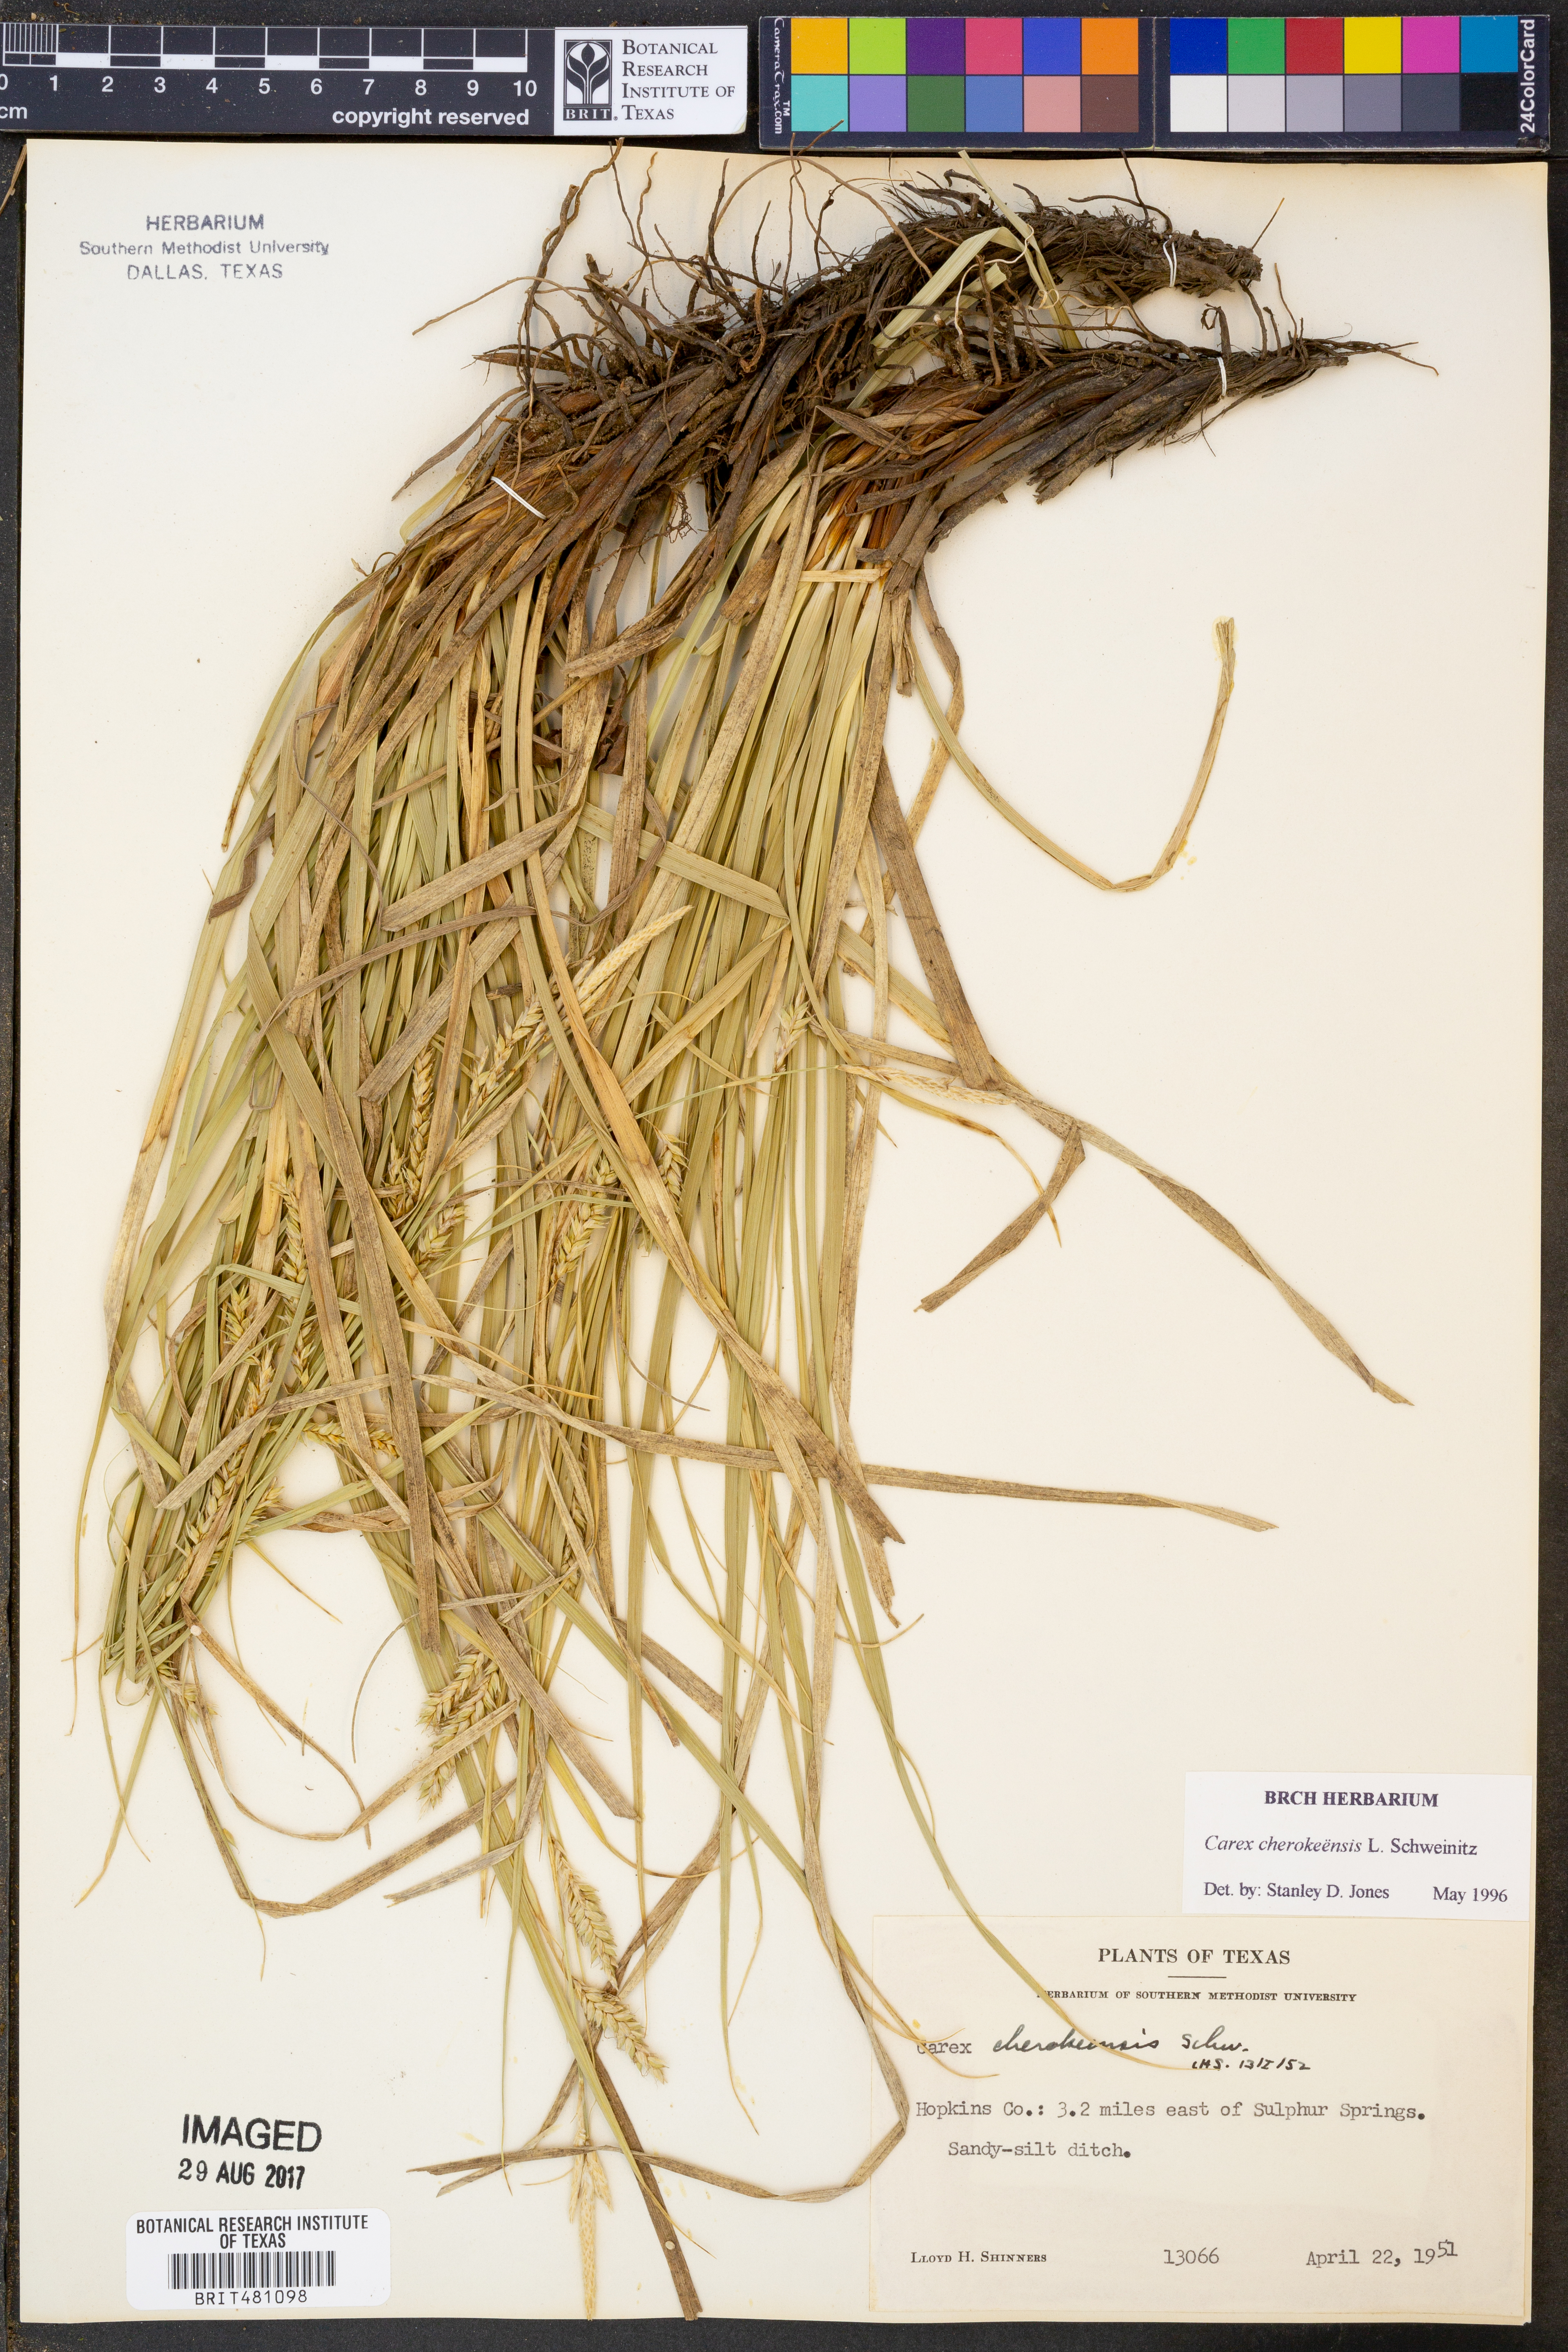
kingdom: Plantae
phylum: Tracheophyta
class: Liliopsida
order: Poales
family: Cyperaceae
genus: Carex
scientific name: Carex cherokeensis
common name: Cherokee sedge
